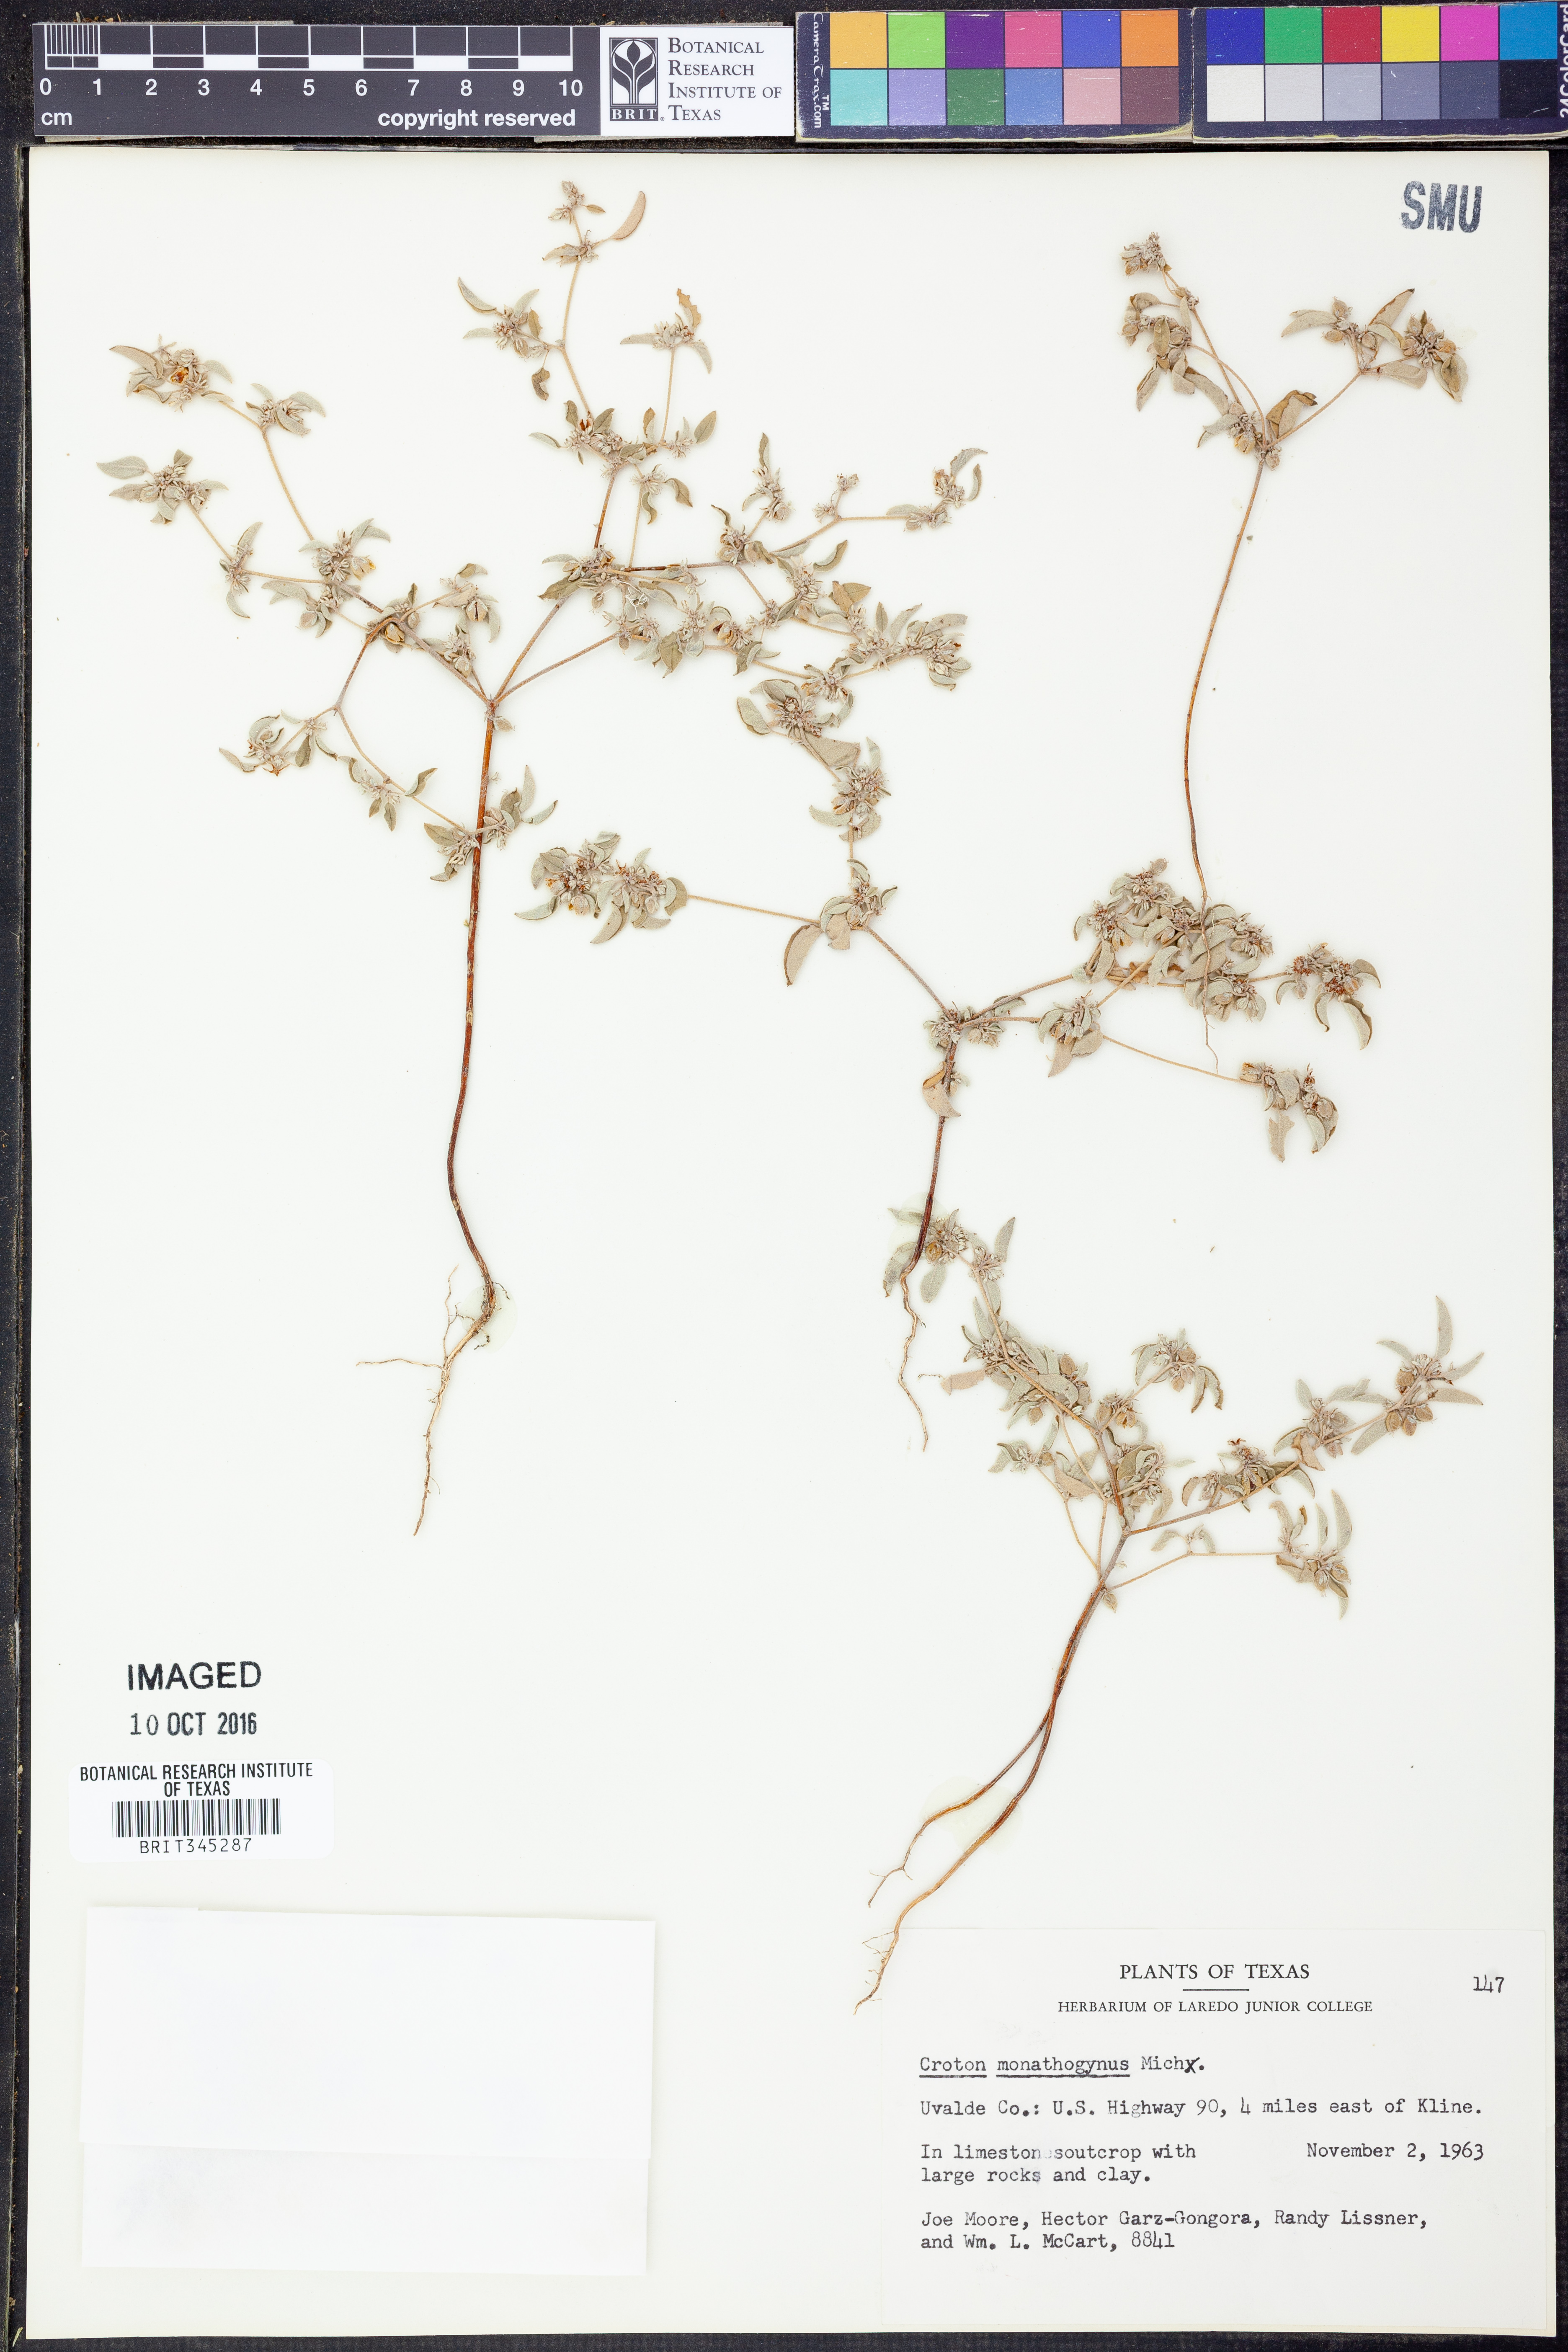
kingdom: Plantae
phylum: Tracheophyta
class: Magnoliopsida
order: Malpighiales
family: Euphorbiaceae
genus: Croton
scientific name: Croton monanthogynus
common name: One-seed croton
